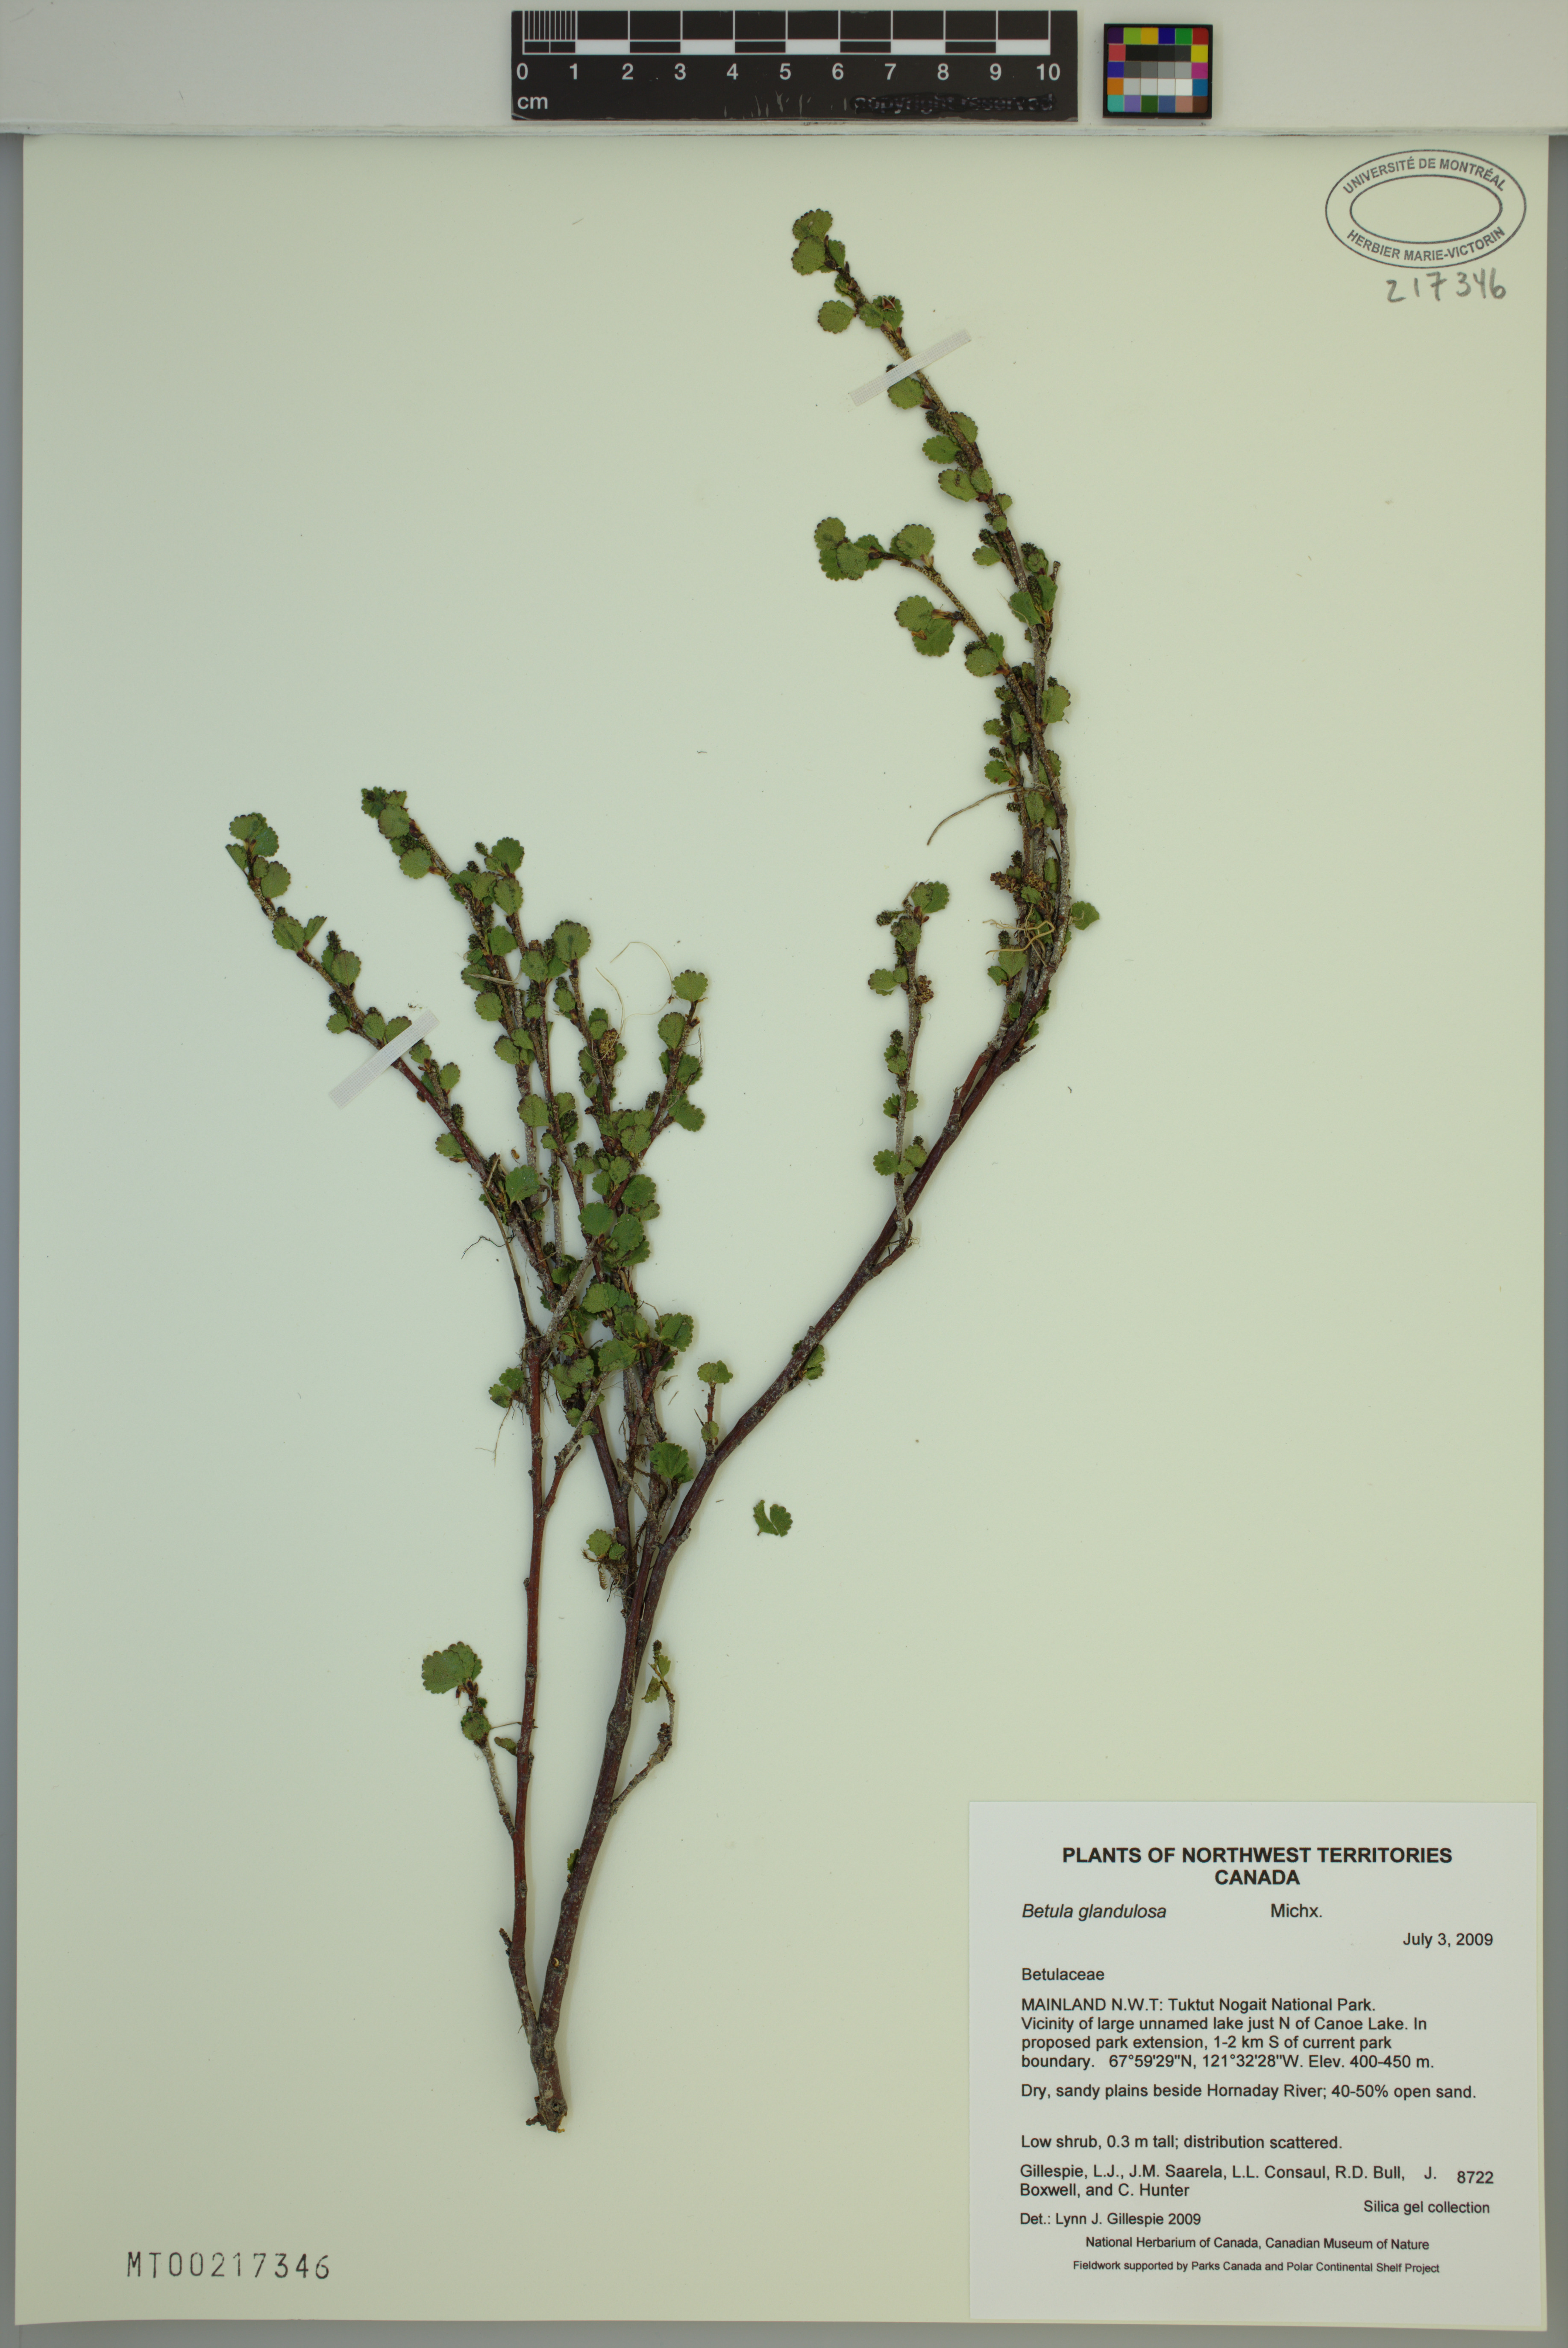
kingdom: Plantae
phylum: Tracheophyta
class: Magnoliopsida
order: Fagales
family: Betulaceae
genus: Betula
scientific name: Betula glandulosa
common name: Dwarf birch
